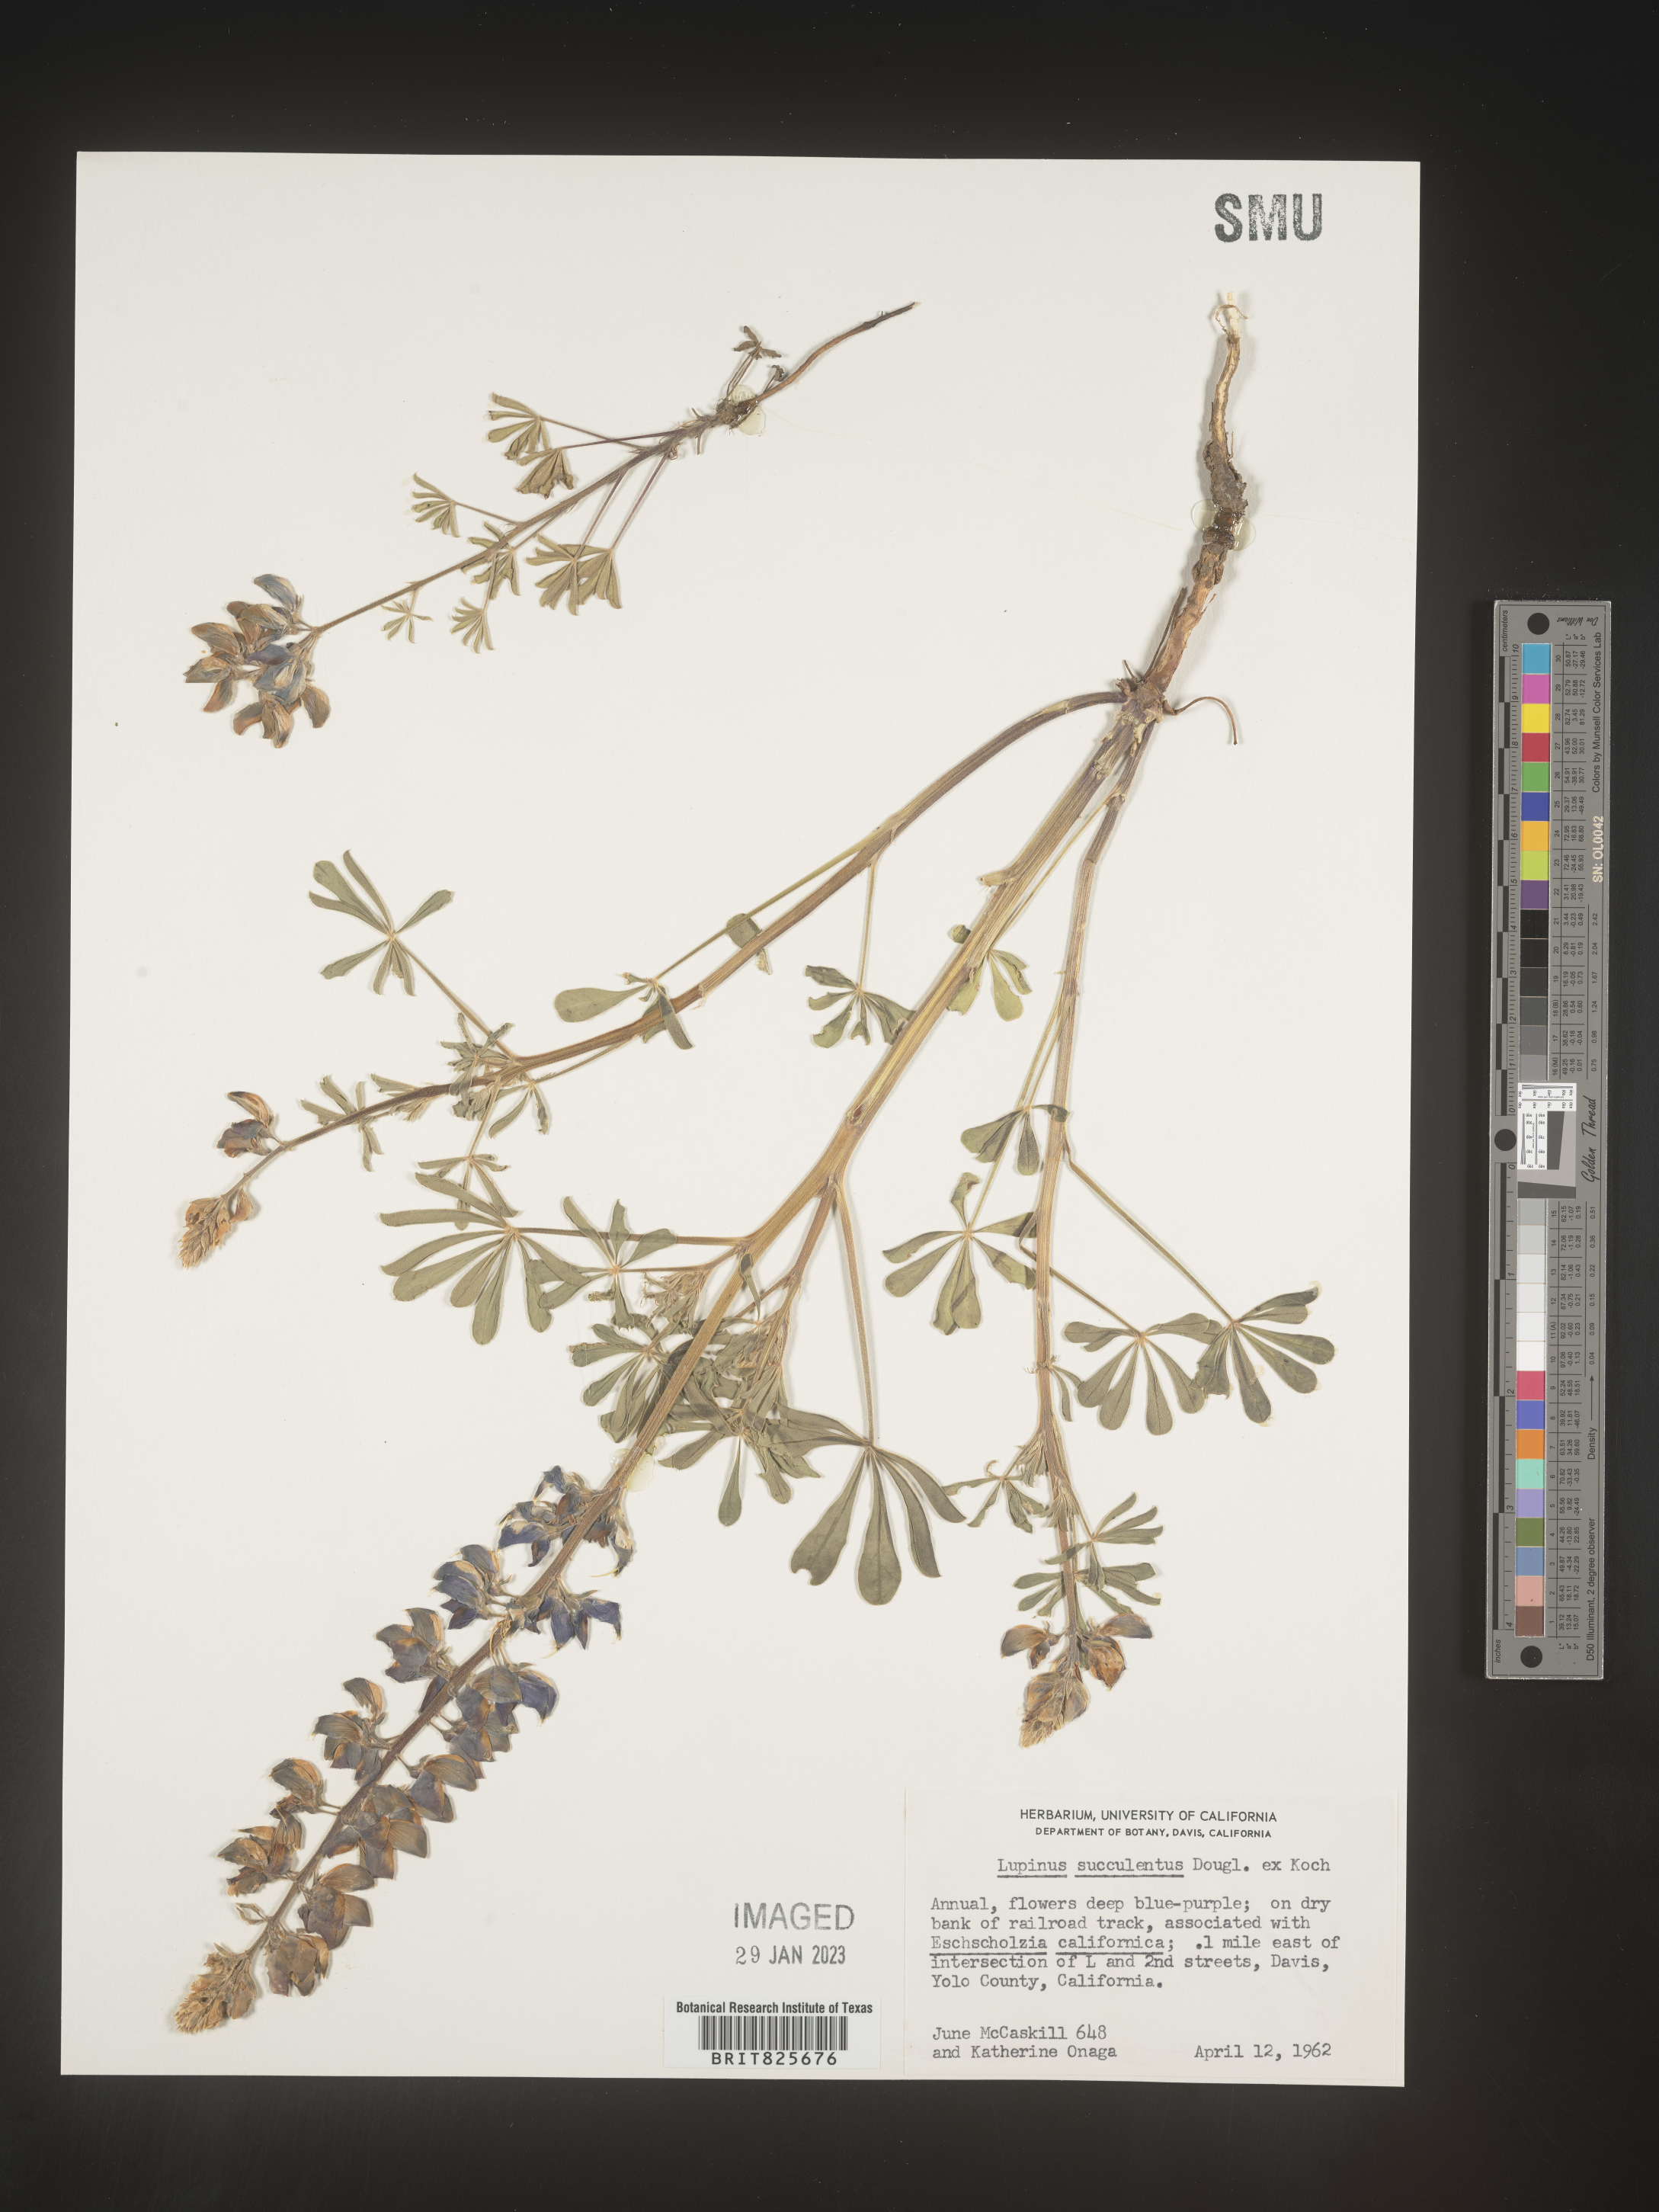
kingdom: Plantae
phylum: Tracheophyta
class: Magnoliopsida
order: Fabales
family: Fabaceae
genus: Lupinus
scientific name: Lupinus
